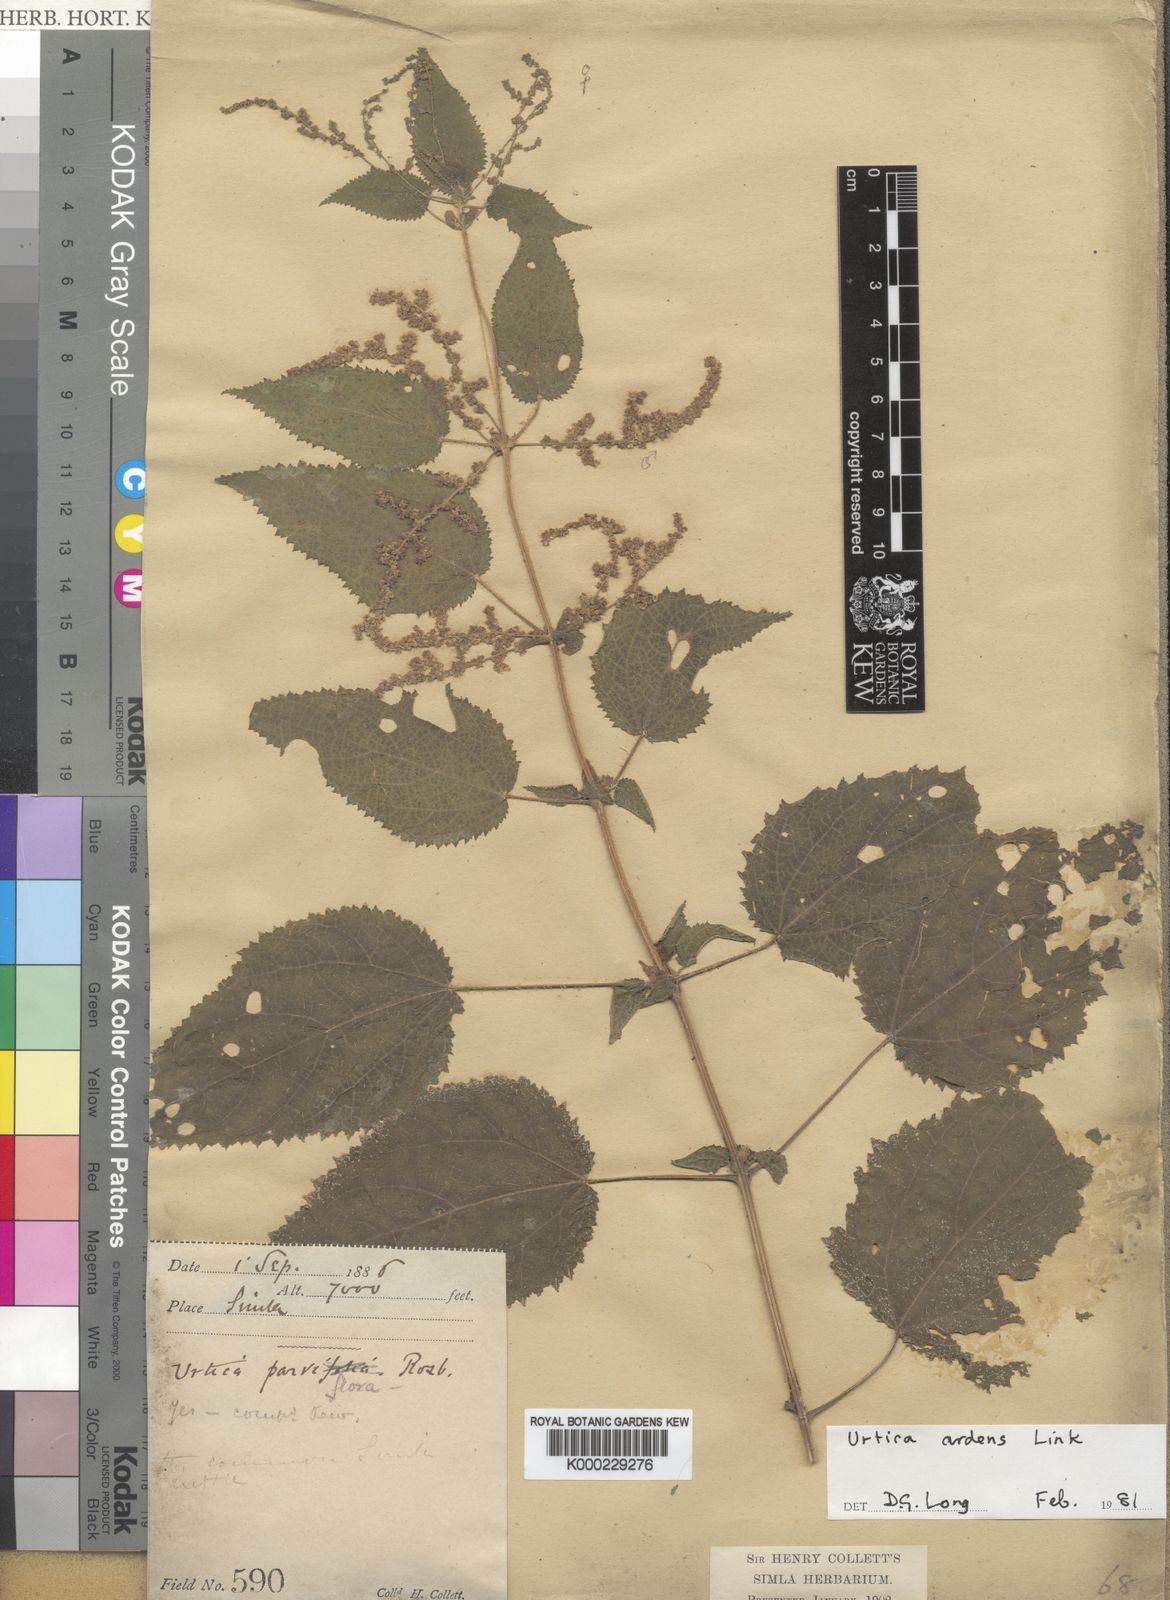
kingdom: Plantae
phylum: Tracheophyta
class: Magnoliopsida
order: Rosales
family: Urticaceae
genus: Urtica
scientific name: Urtica ardens
